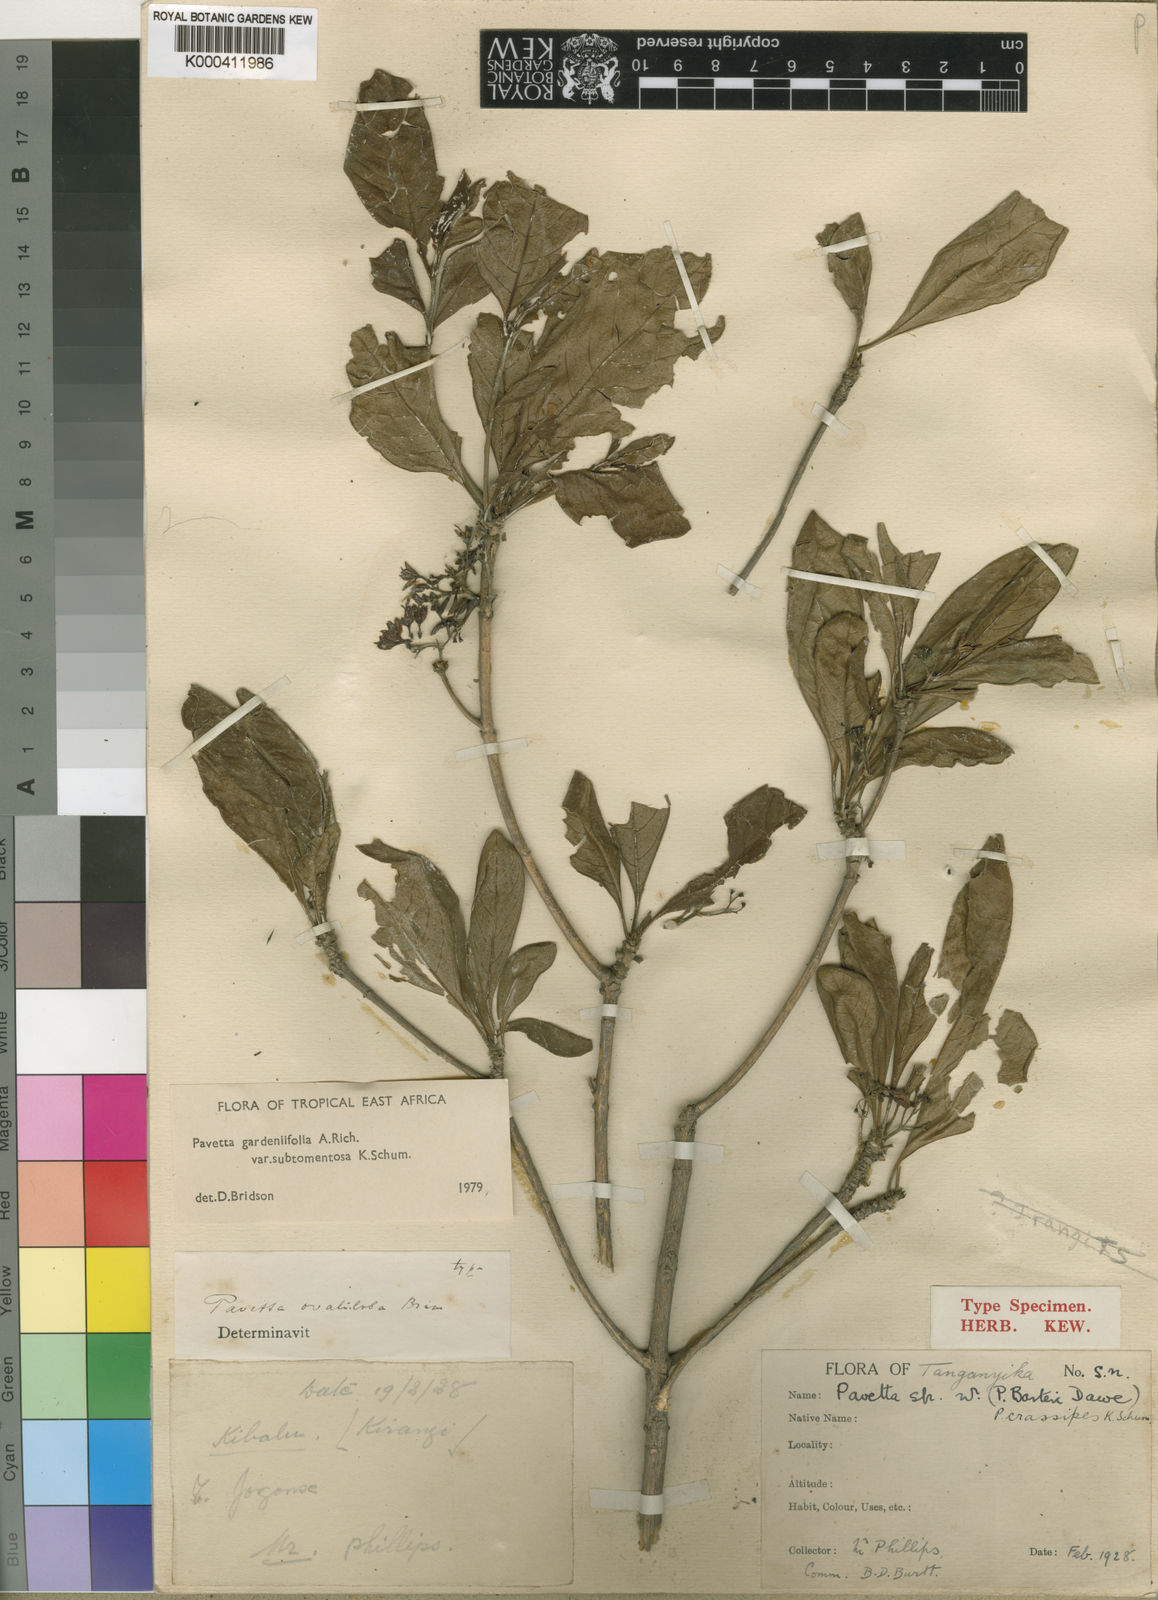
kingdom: Plantae
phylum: Tracheophyta
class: Magnoliopsida
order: Gentianales
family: Rubiaceae
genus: Pavetta
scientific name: Pavetta gardeniifolia
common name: Common brides-bush
